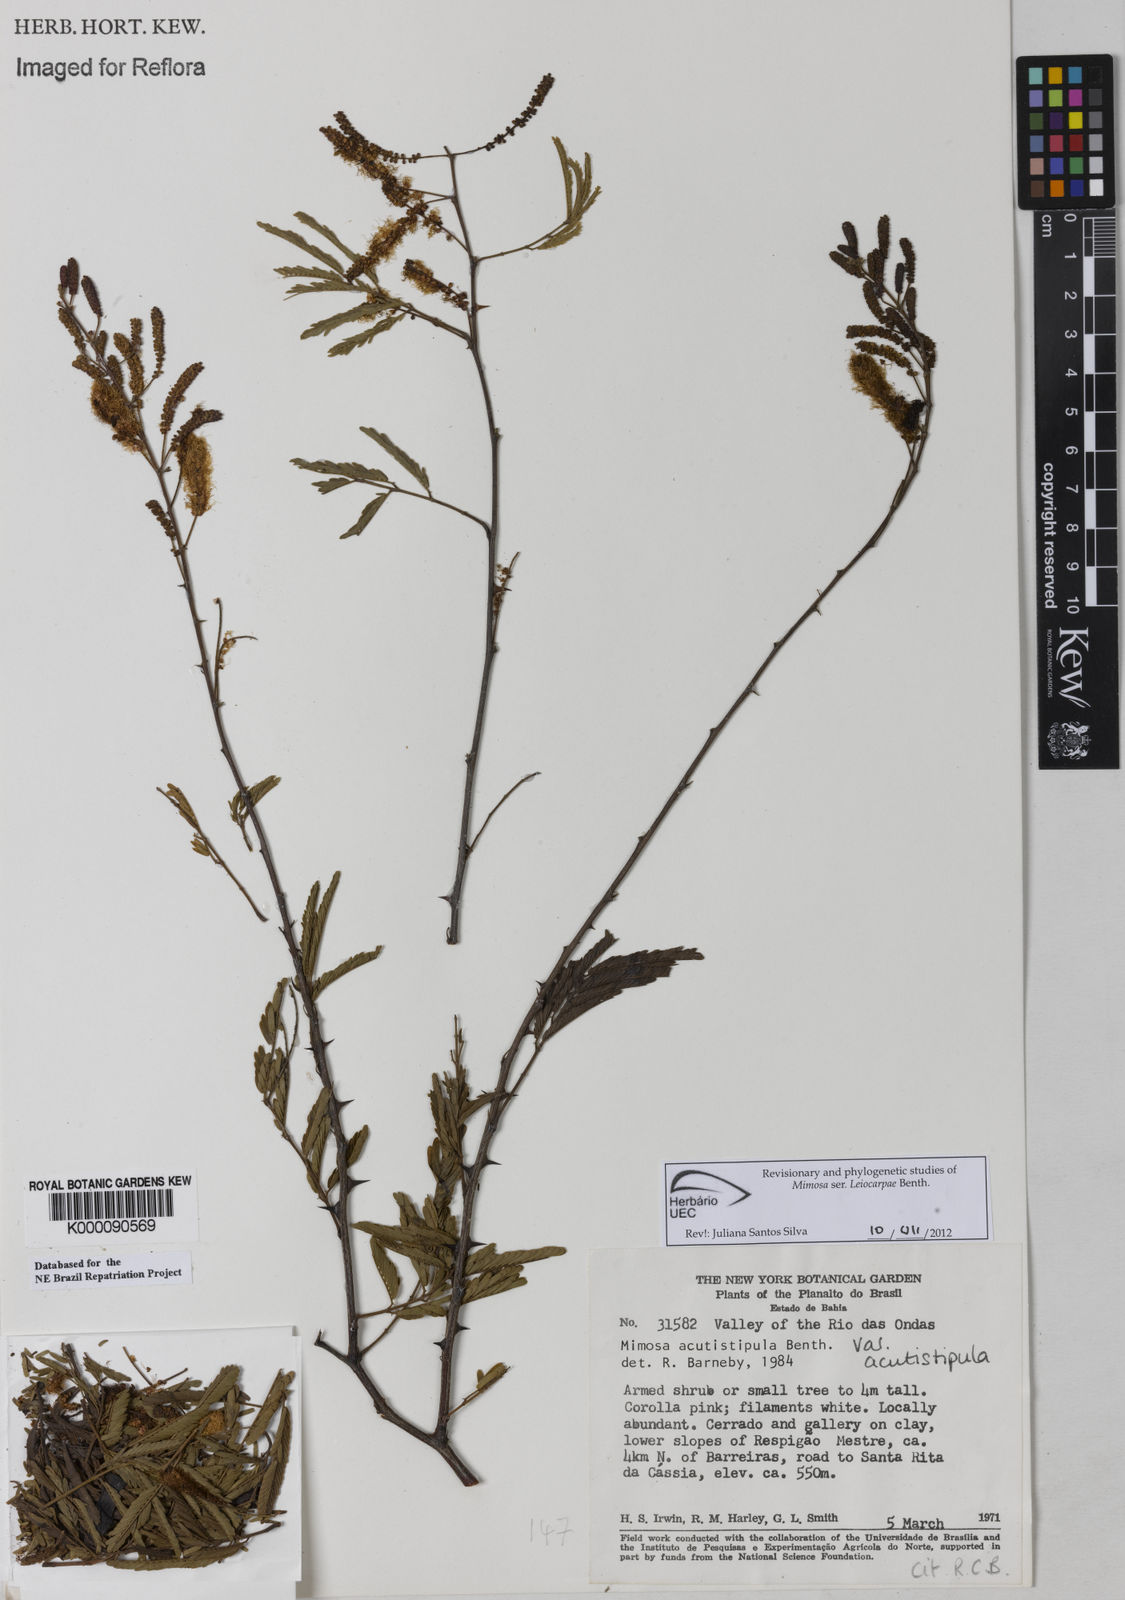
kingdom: Plantae
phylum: Tracheophyta
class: Magnoliopsida
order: Fabales
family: Fabaceae
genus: Mimosa
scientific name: Mimosa acutistipula
